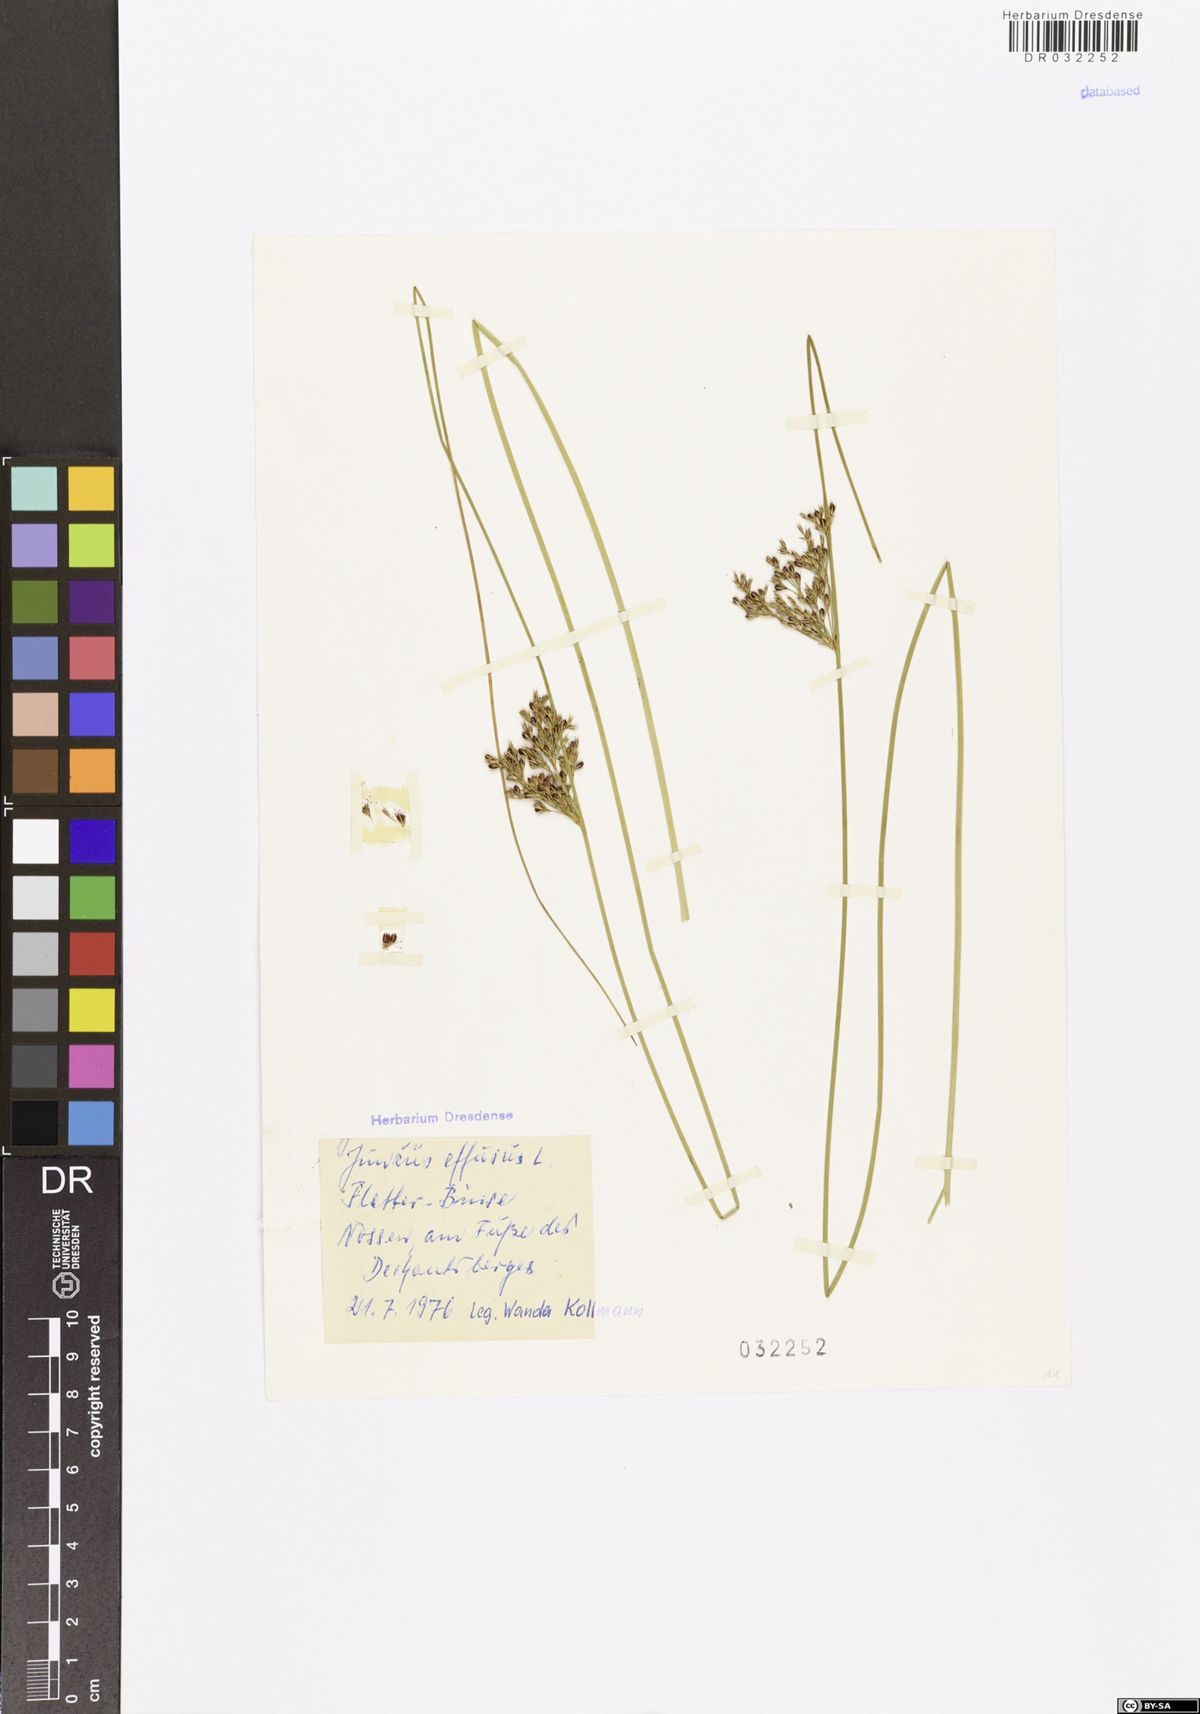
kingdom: Plantae
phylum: Tracheophyta
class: Liliopsida
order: Poales
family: Juncaceae
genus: Juncus
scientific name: Juncus effusus
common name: Soft rush
